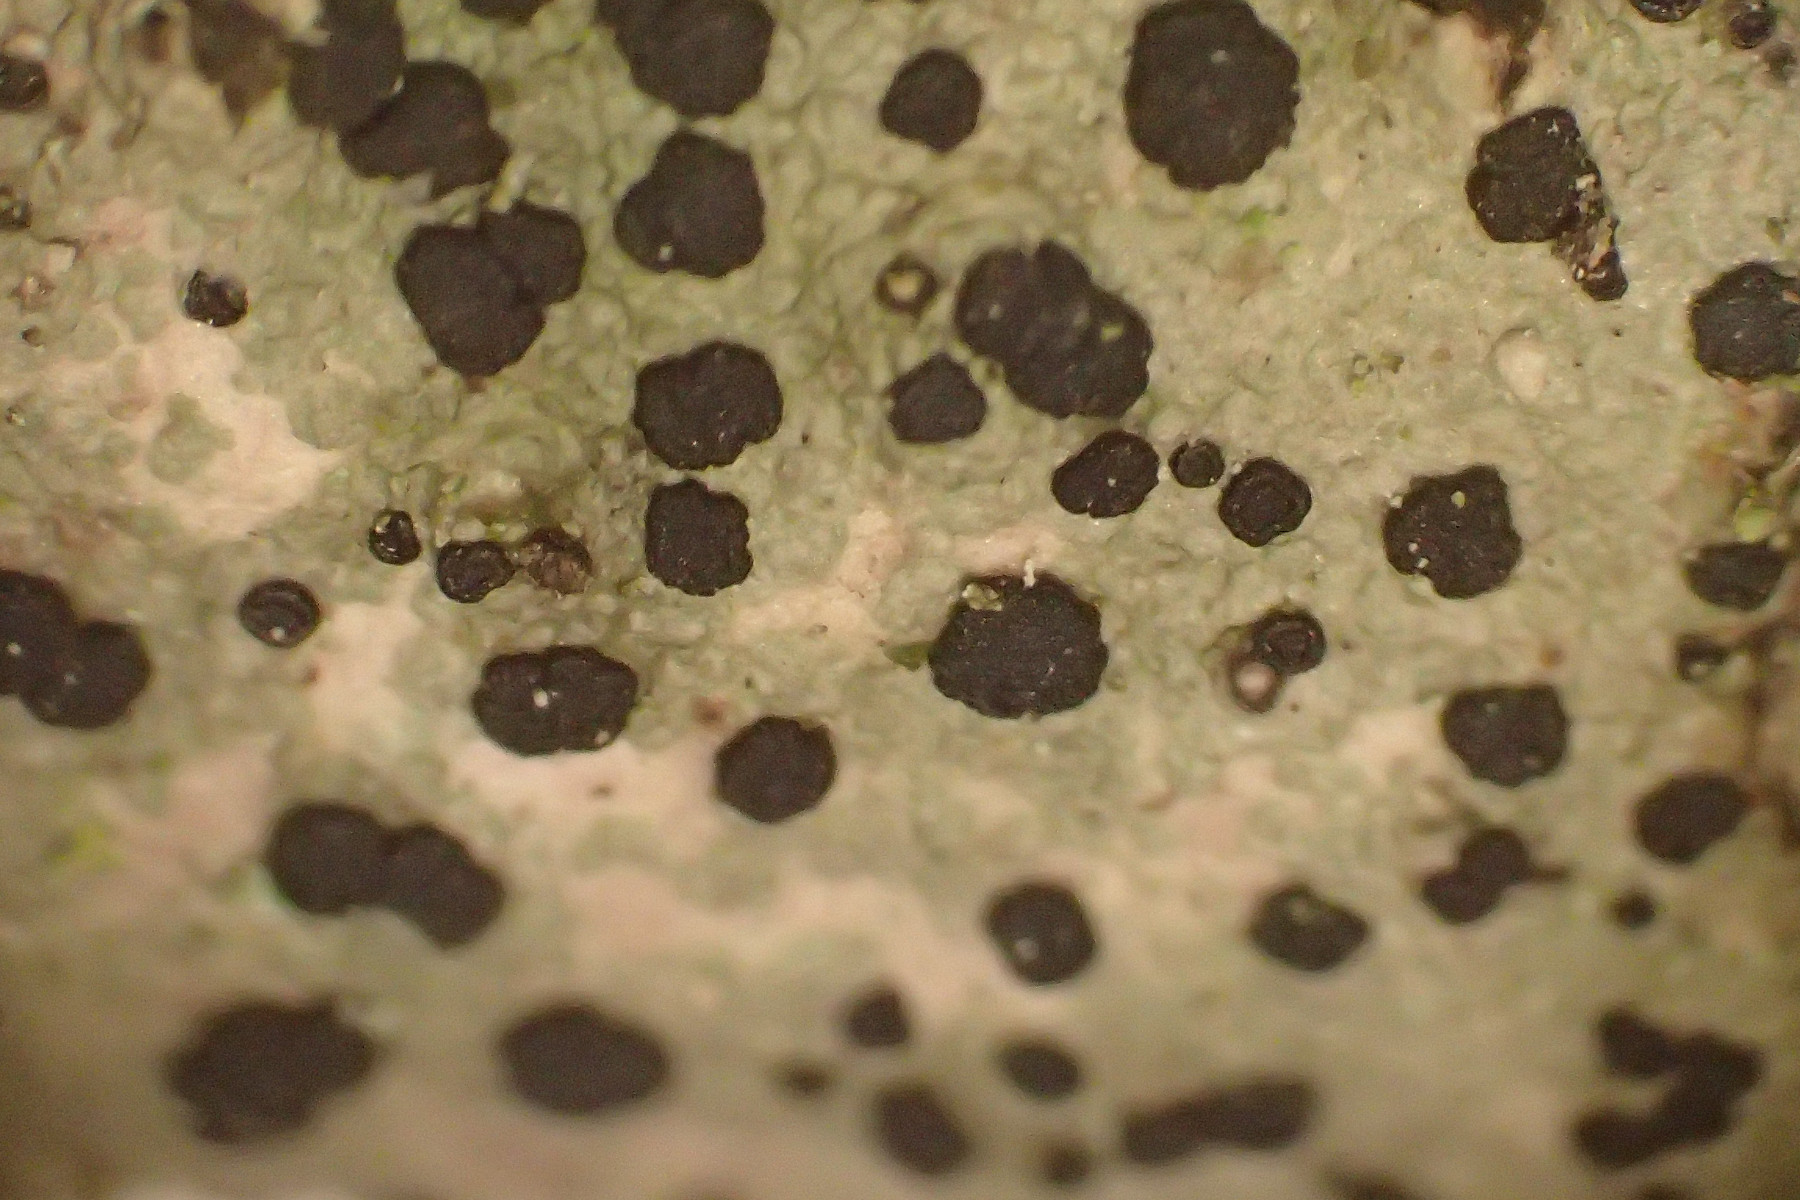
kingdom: Fungi
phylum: Ascomycota
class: Lecanoromycetes
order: Lecanorales
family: Lecanoraceae
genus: Lecidella
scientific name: Lecidella elaeochroma
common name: grågrøn skivelav
